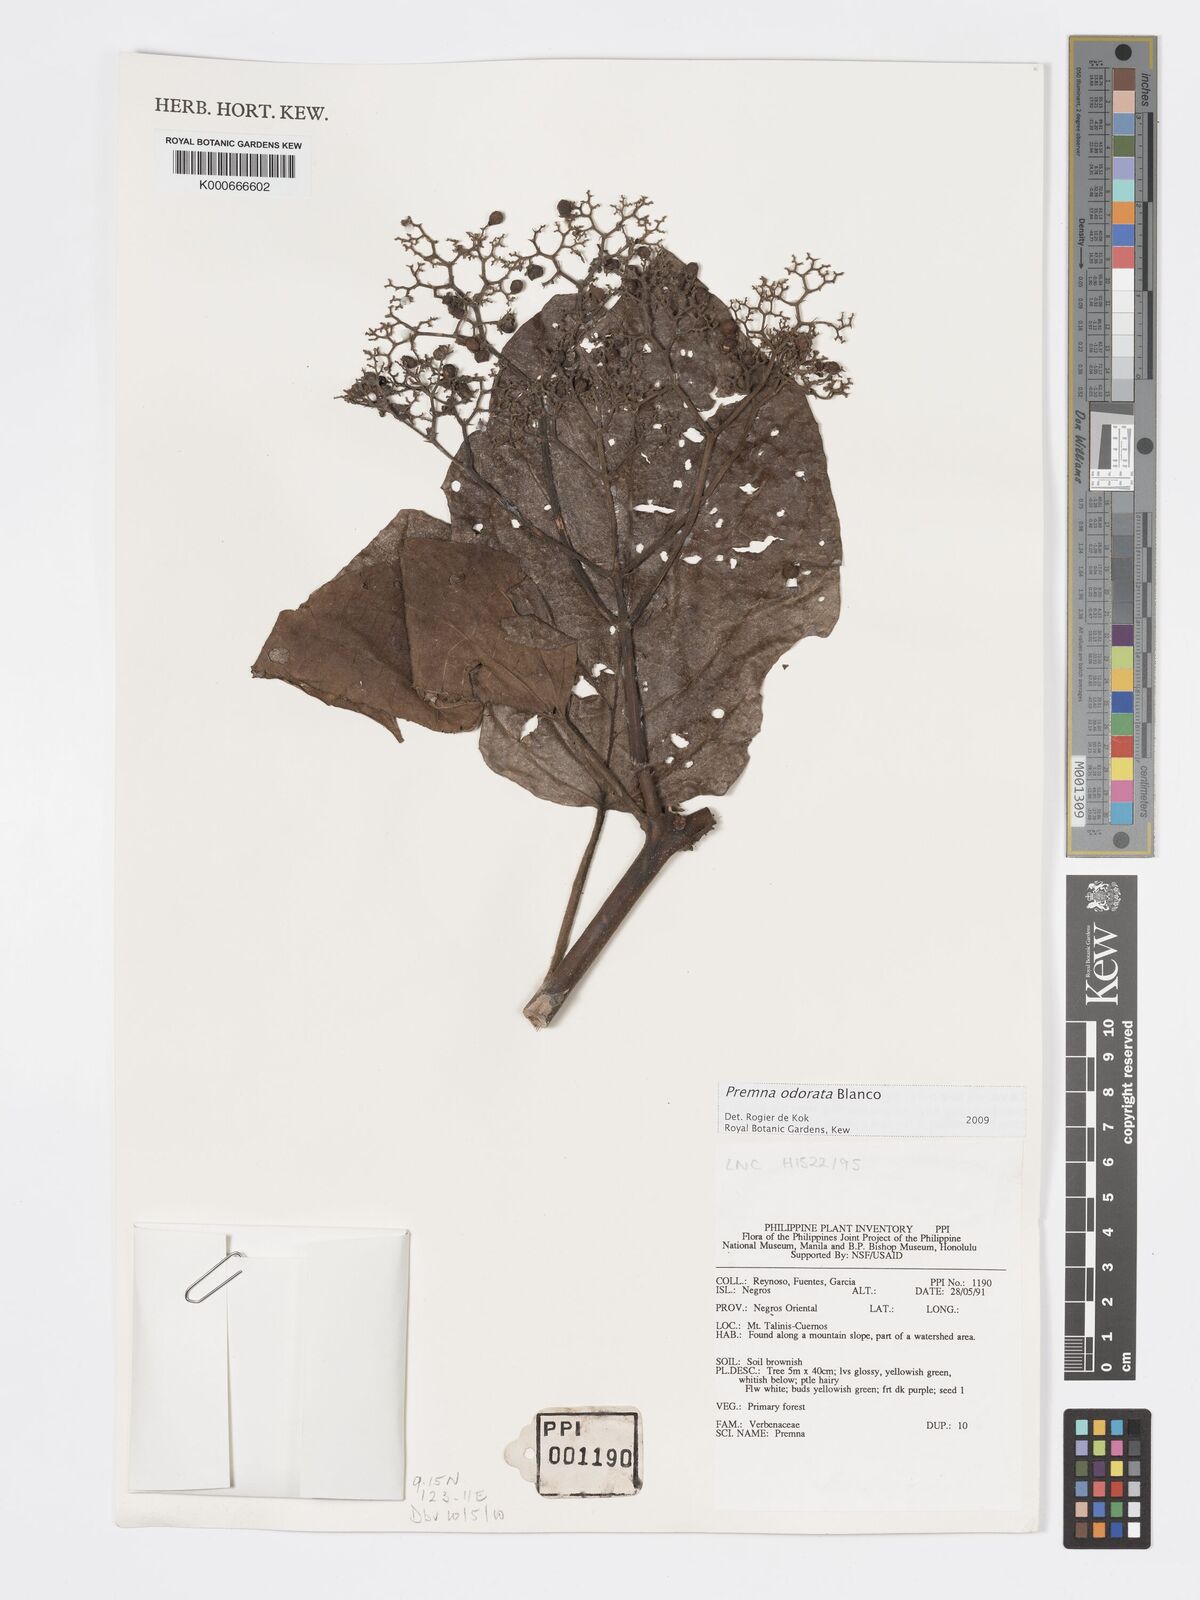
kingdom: Plantae
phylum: Tracheophyta
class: Magnoliopsida
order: Lamiales
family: Lamiaceae
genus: Premna
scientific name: Premna odorata
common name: Fragrant premna
